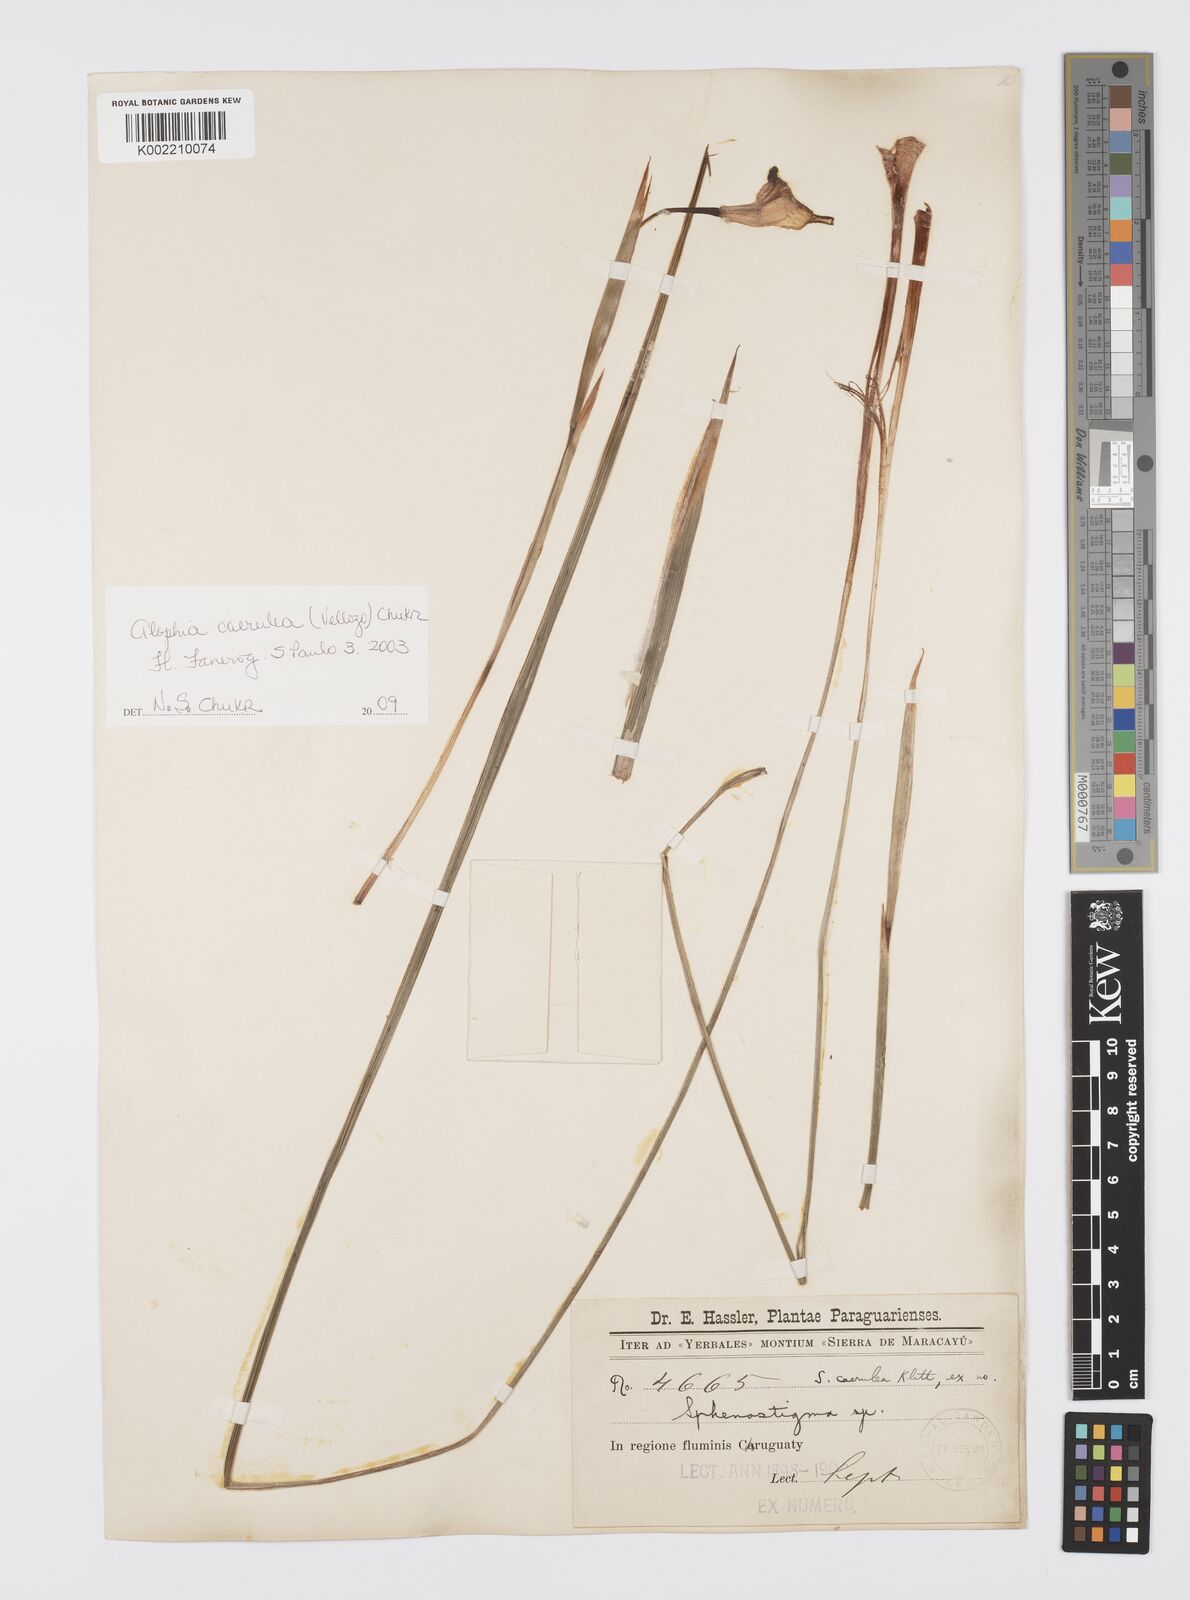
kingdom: Plantae
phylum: Tracheophyta
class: Liliopsida
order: Asparagales
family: Iridaceae
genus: Herbertia
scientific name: Herbertia lahue
